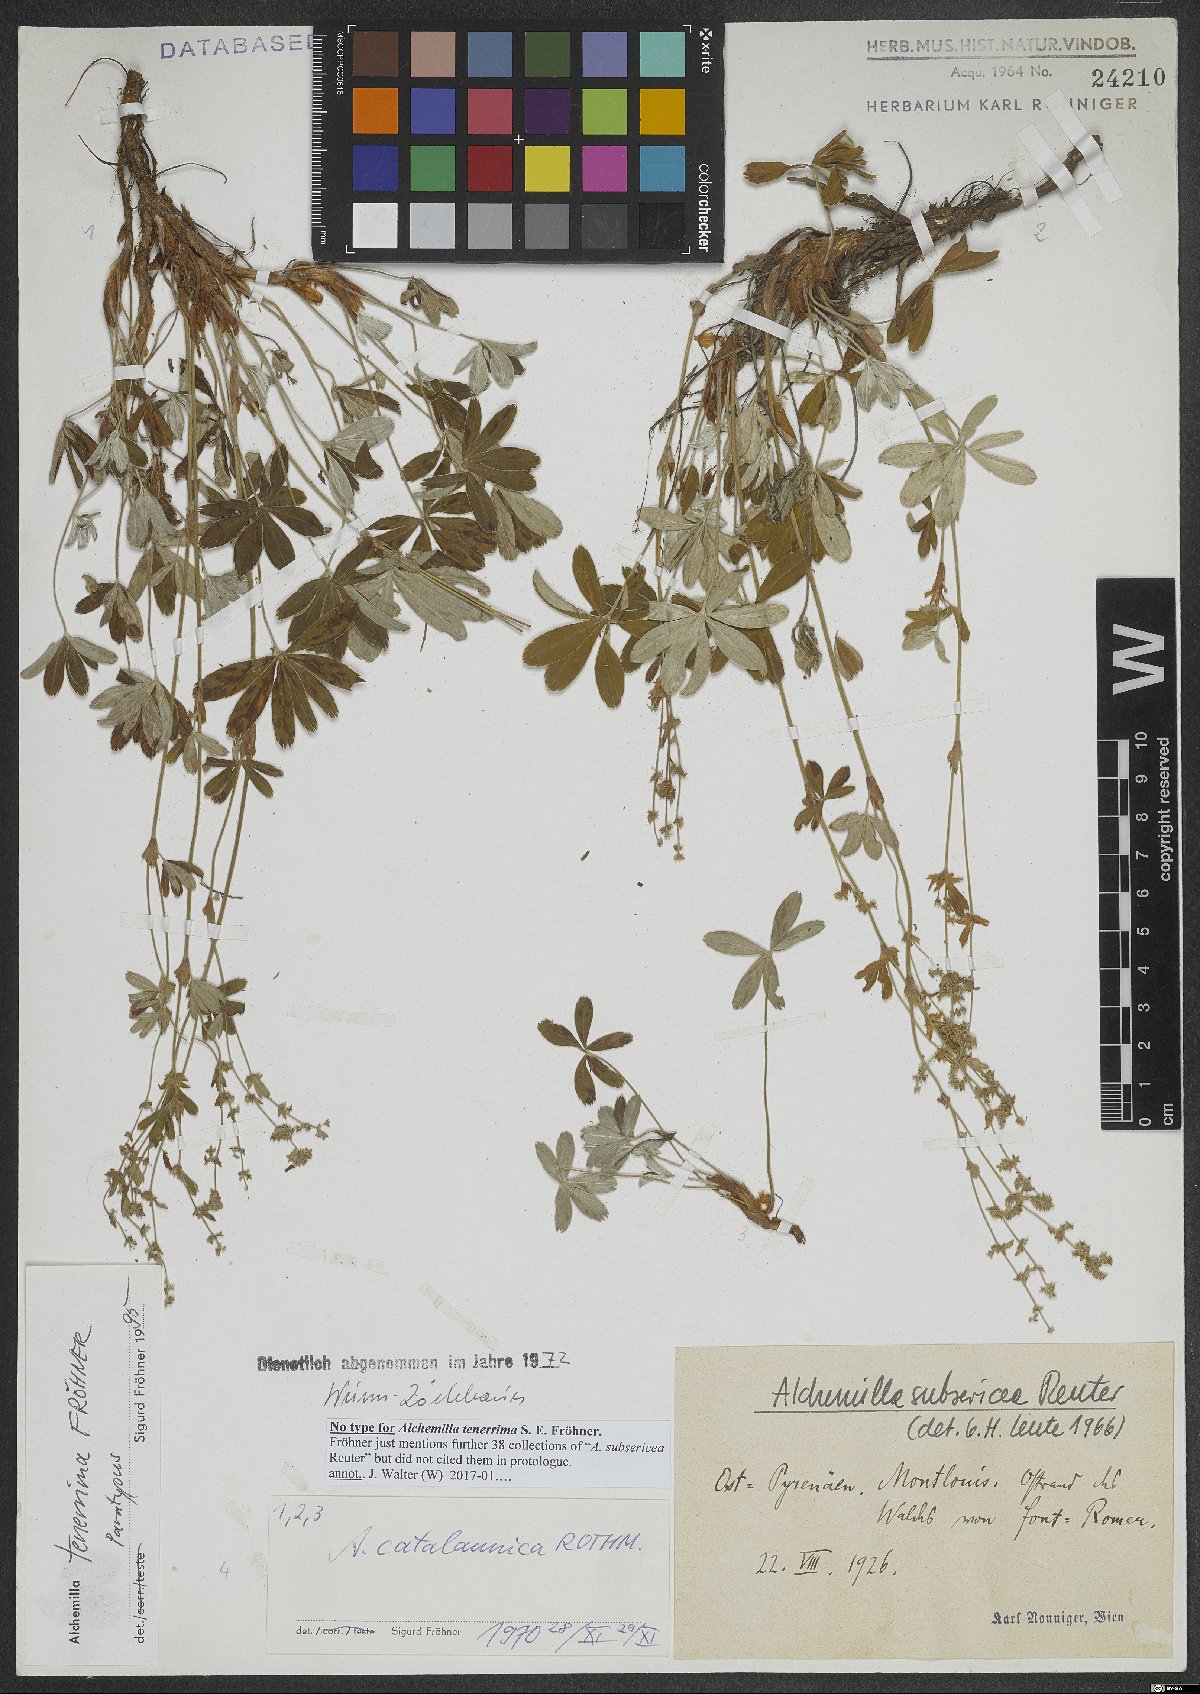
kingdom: Plantae
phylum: Tracheophyta
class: Magnoliopsida
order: Rosales
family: Rosaceae
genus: Alchemilla
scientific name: Alchemilla tenerrima
